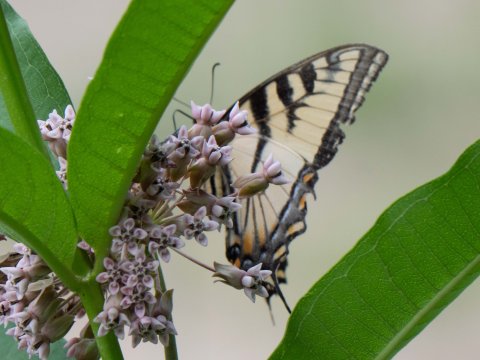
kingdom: Animalia
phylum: Arthropoda
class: Insecta
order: Lepidoptera
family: Papilionidae
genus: Pterourus
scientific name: Pterourus canadensis
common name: Canadian Tiger Swallowtail
